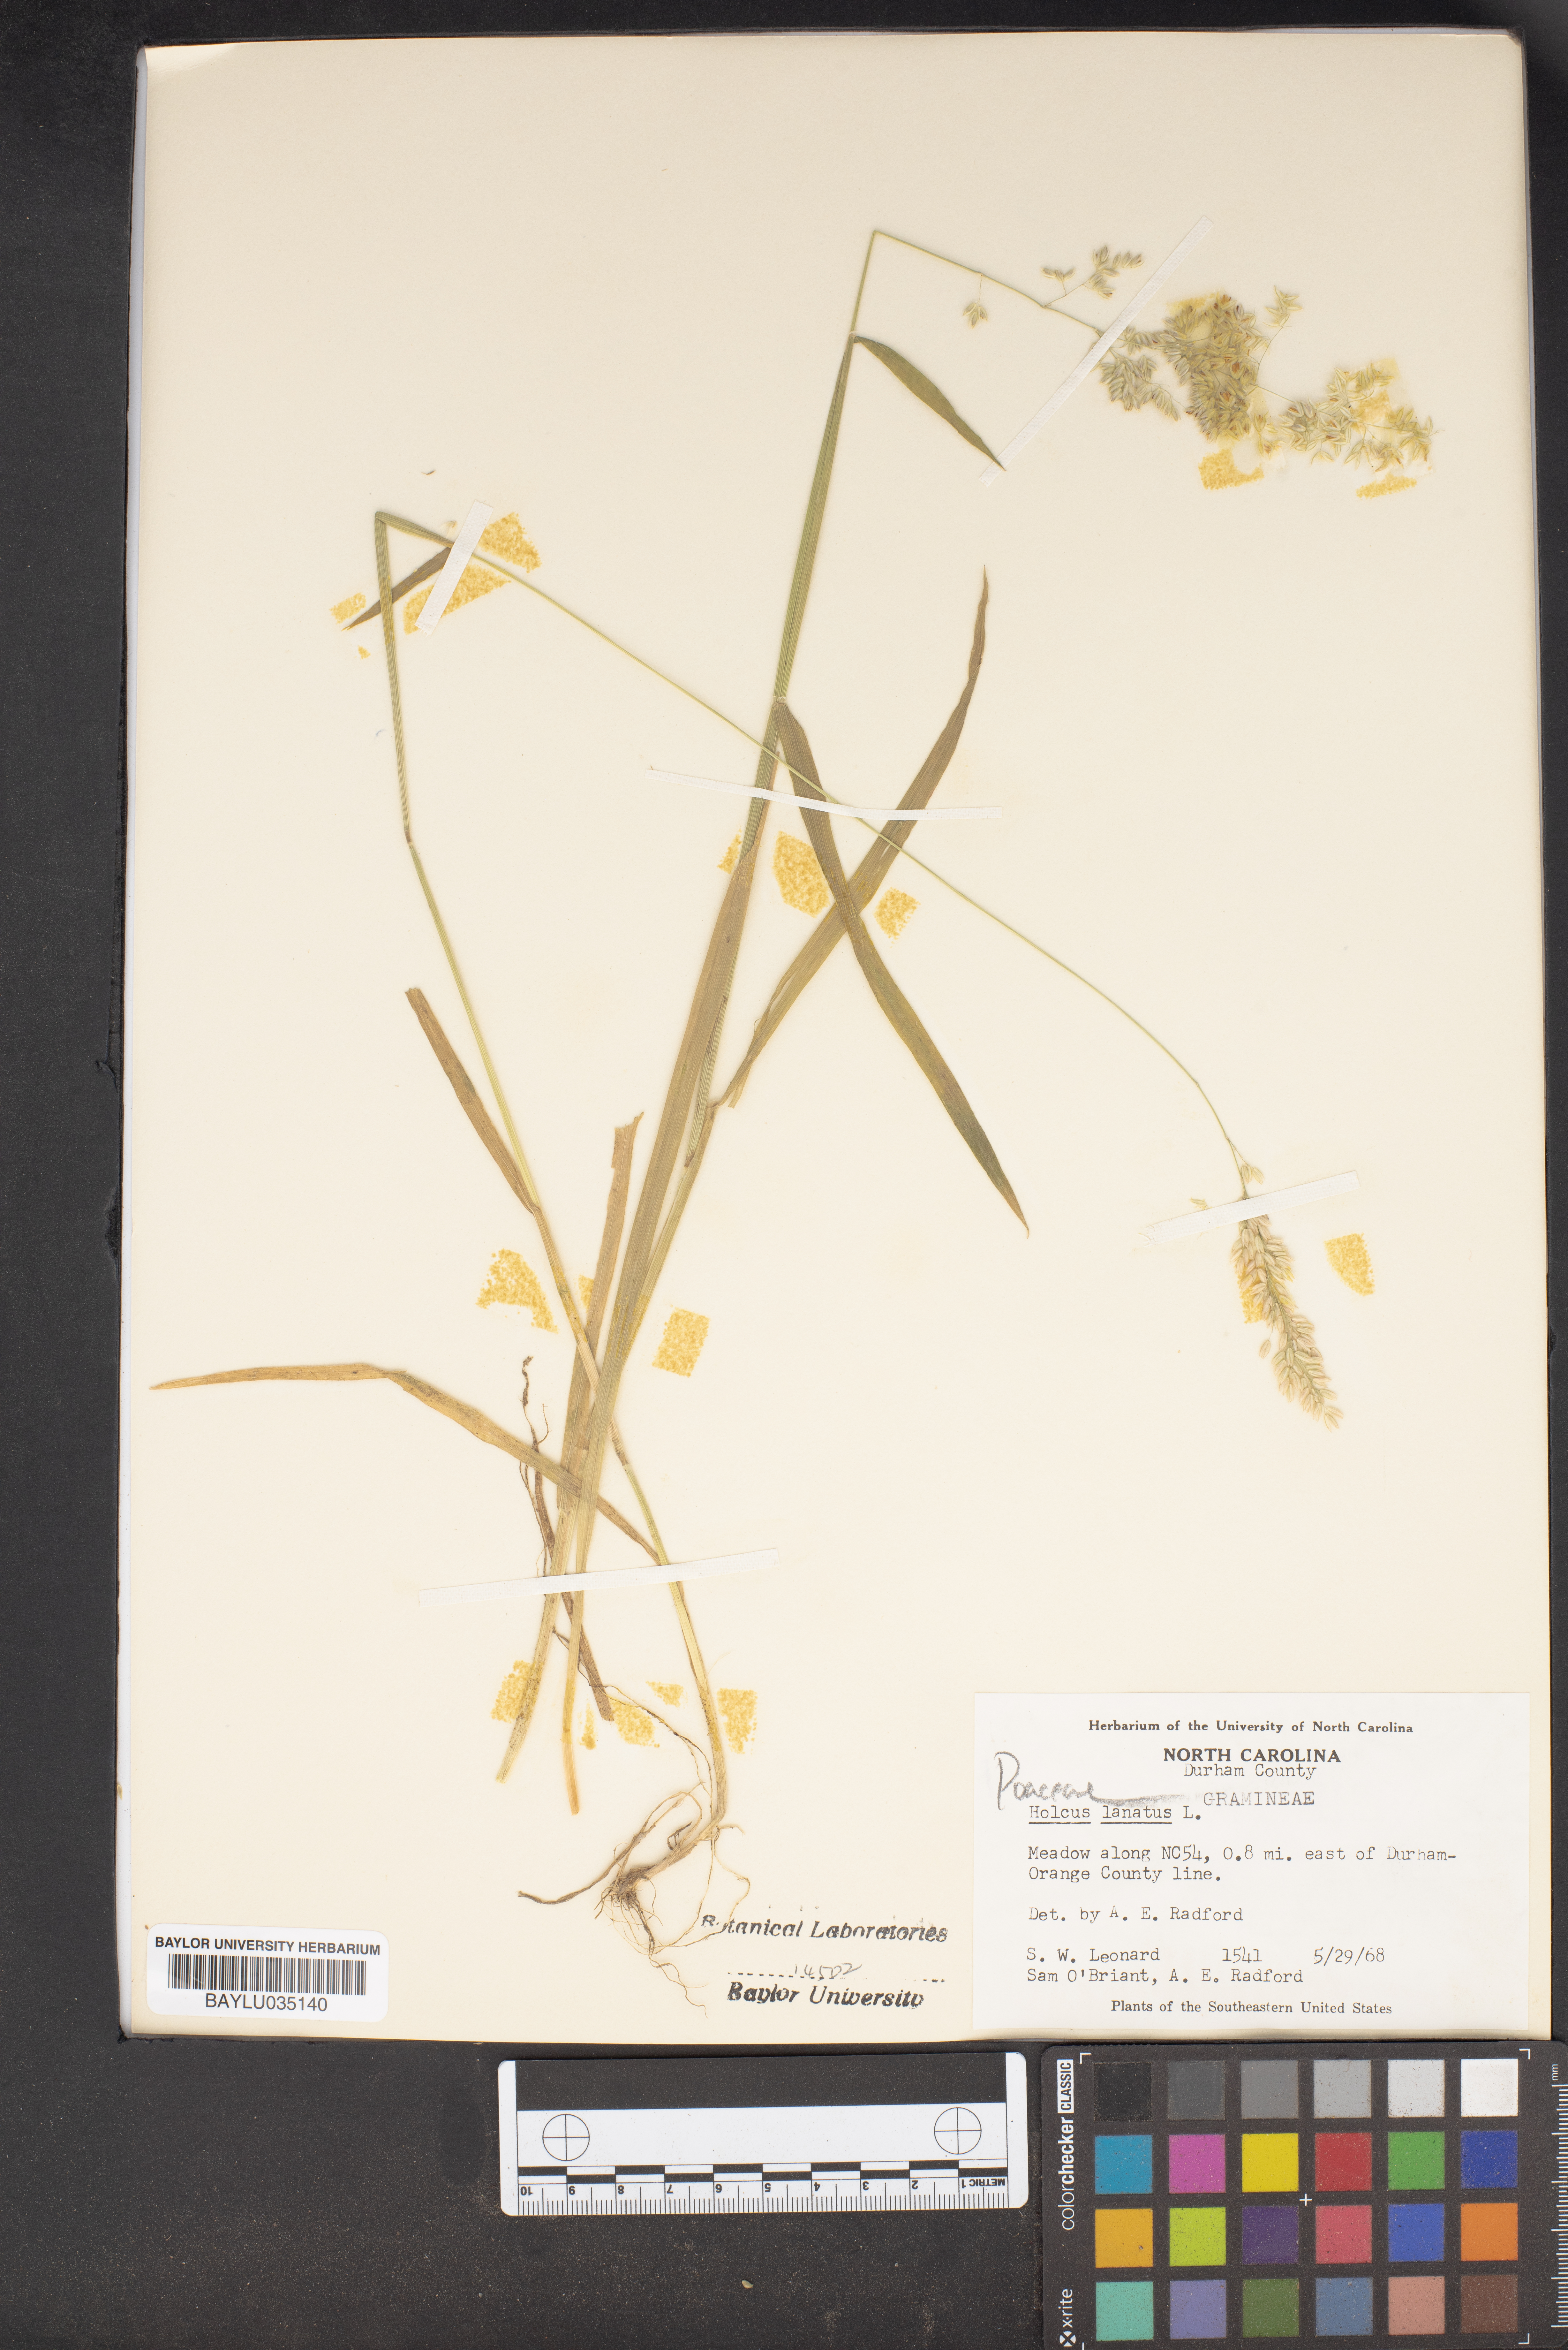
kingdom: Plantae
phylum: Tracheophyta
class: Liliopsida
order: Poales
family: Poaceae
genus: Holcus
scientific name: Holcus lanatus
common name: Yorkshire-fog
